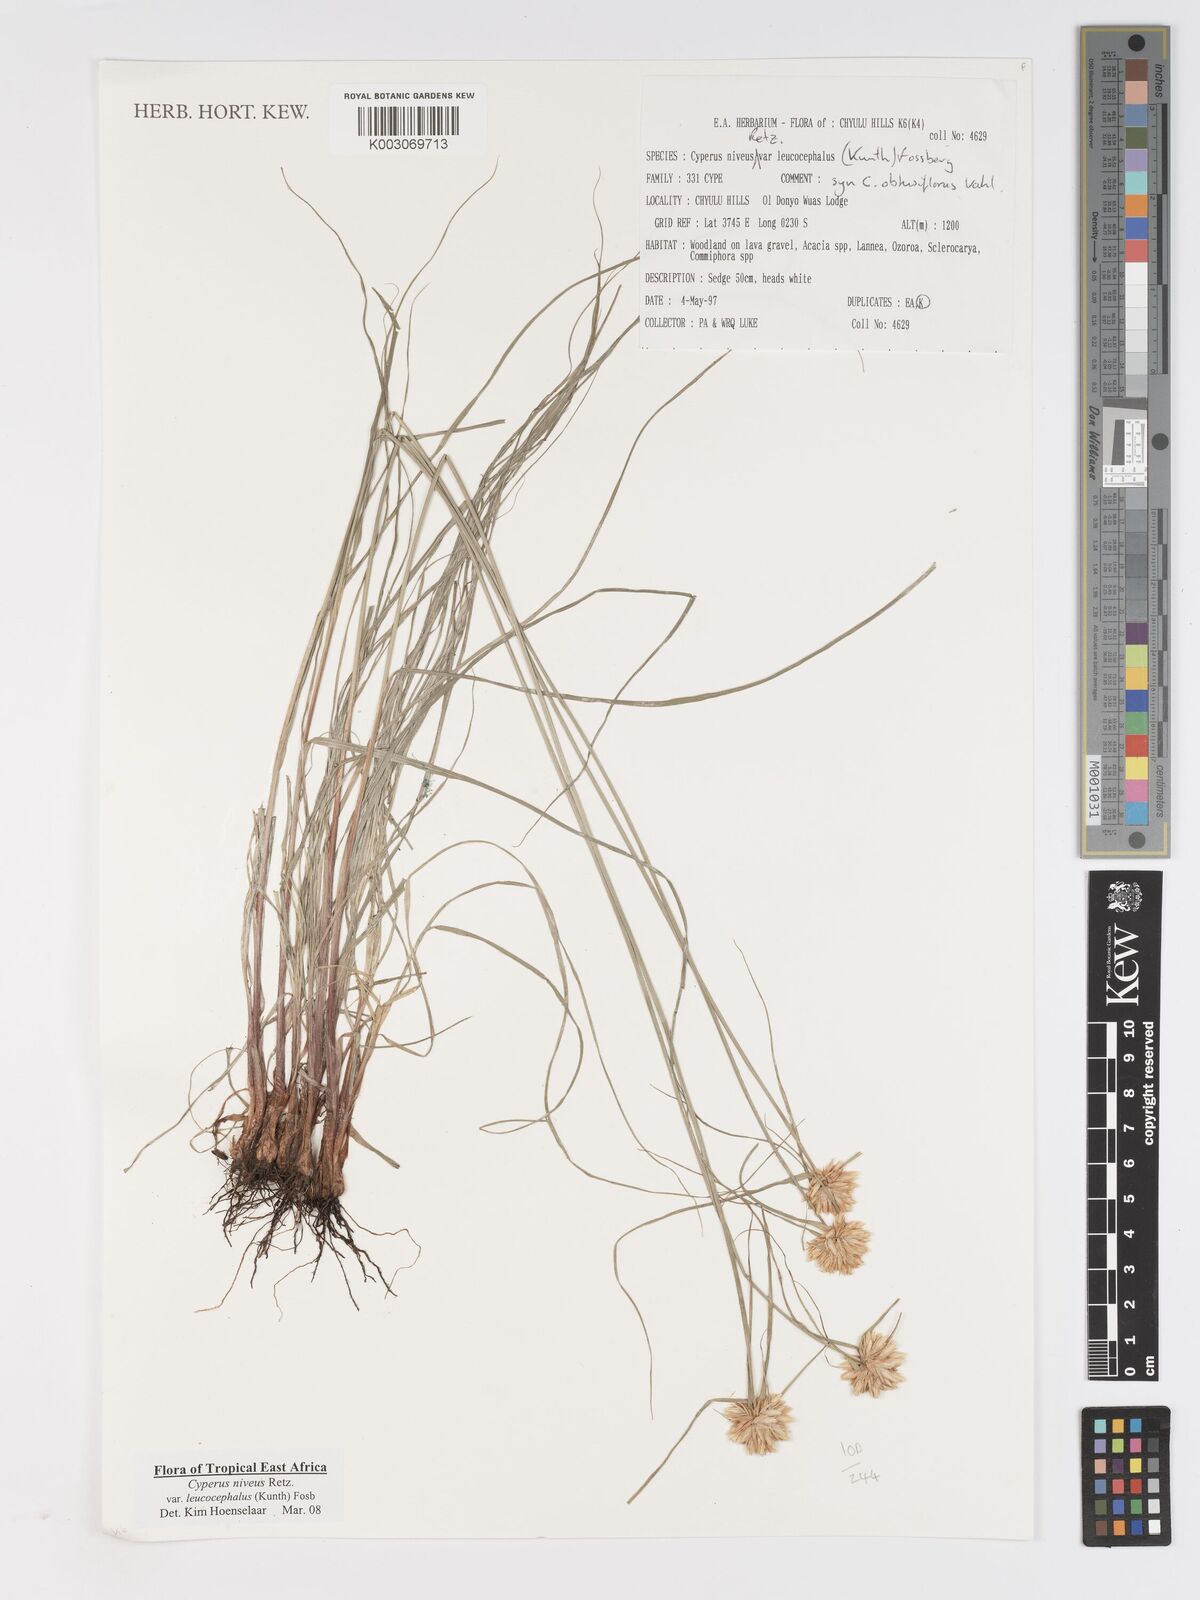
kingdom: Plantae
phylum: Tracheophyta
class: Liliopsida
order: Poales
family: Cyperaceae
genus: Cyperus
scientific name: Cyperus niveus
